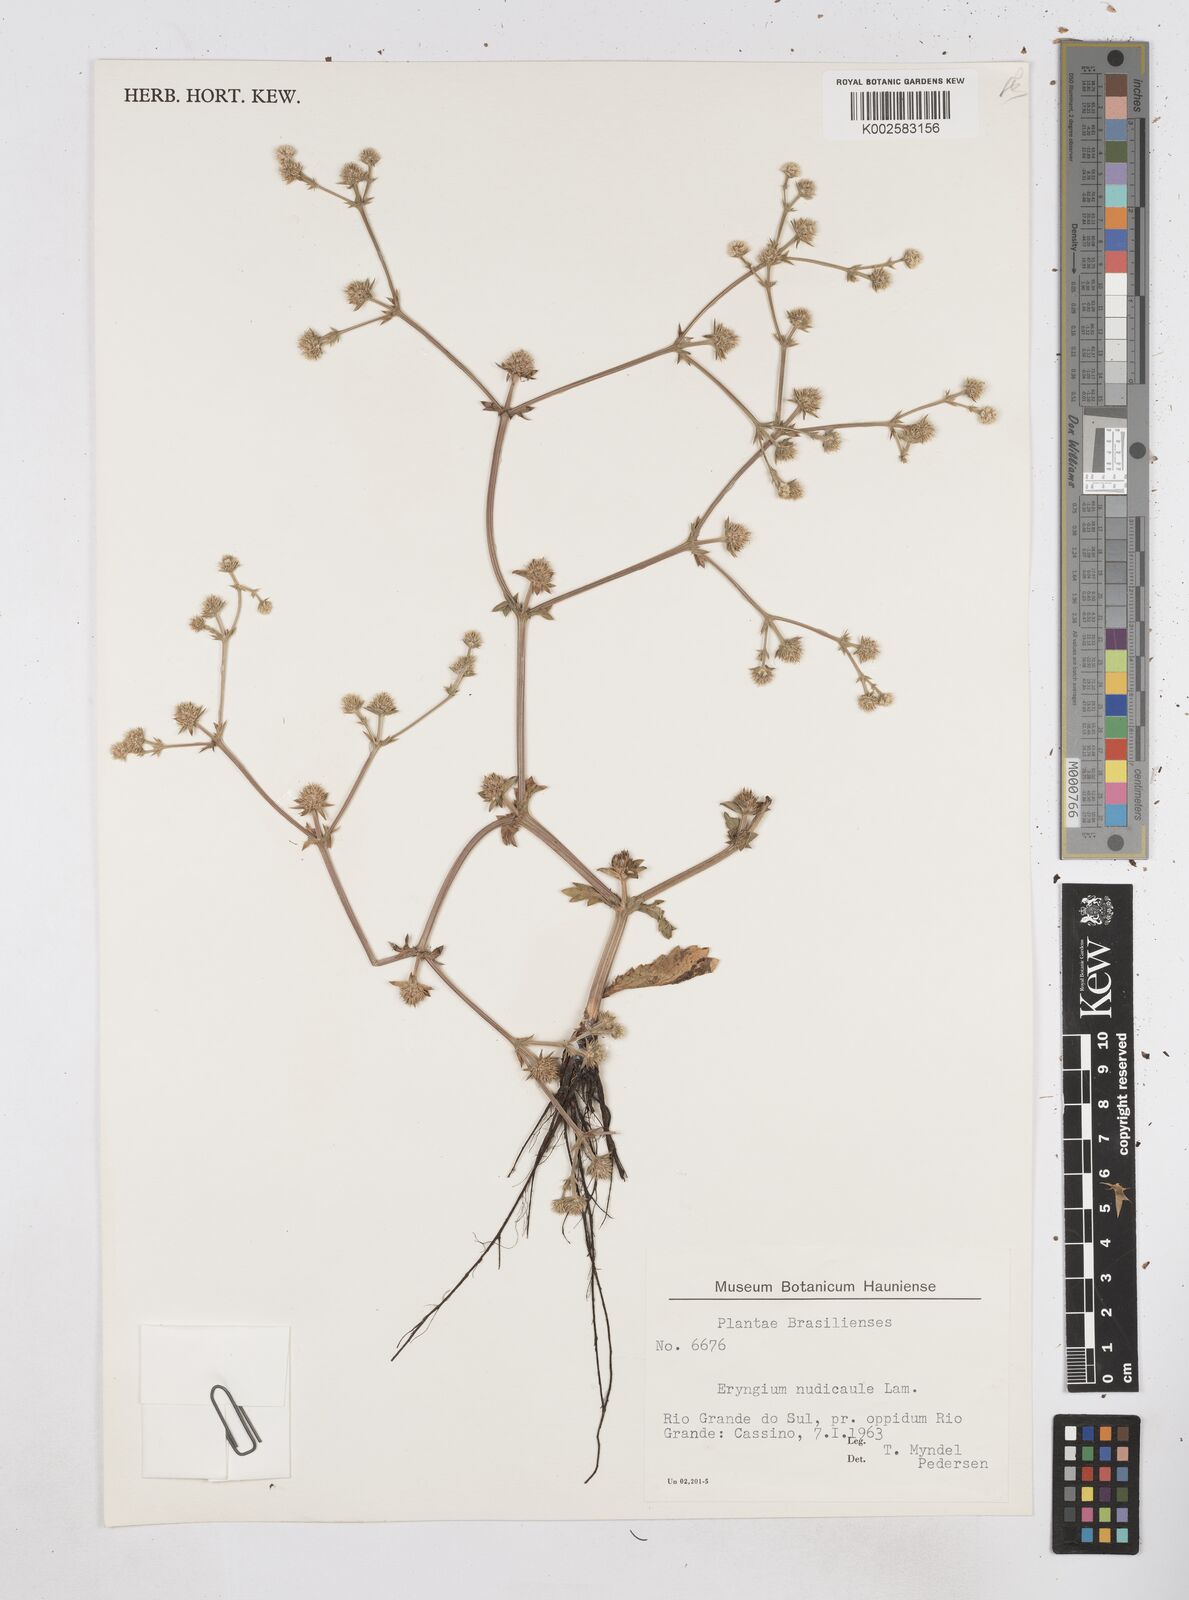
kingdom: Plantae
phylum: Tracheophyta
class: Magnoliopsida
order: Apiales
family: Apiaceae
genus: Eryngium
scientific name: Eryngium nudicaule
